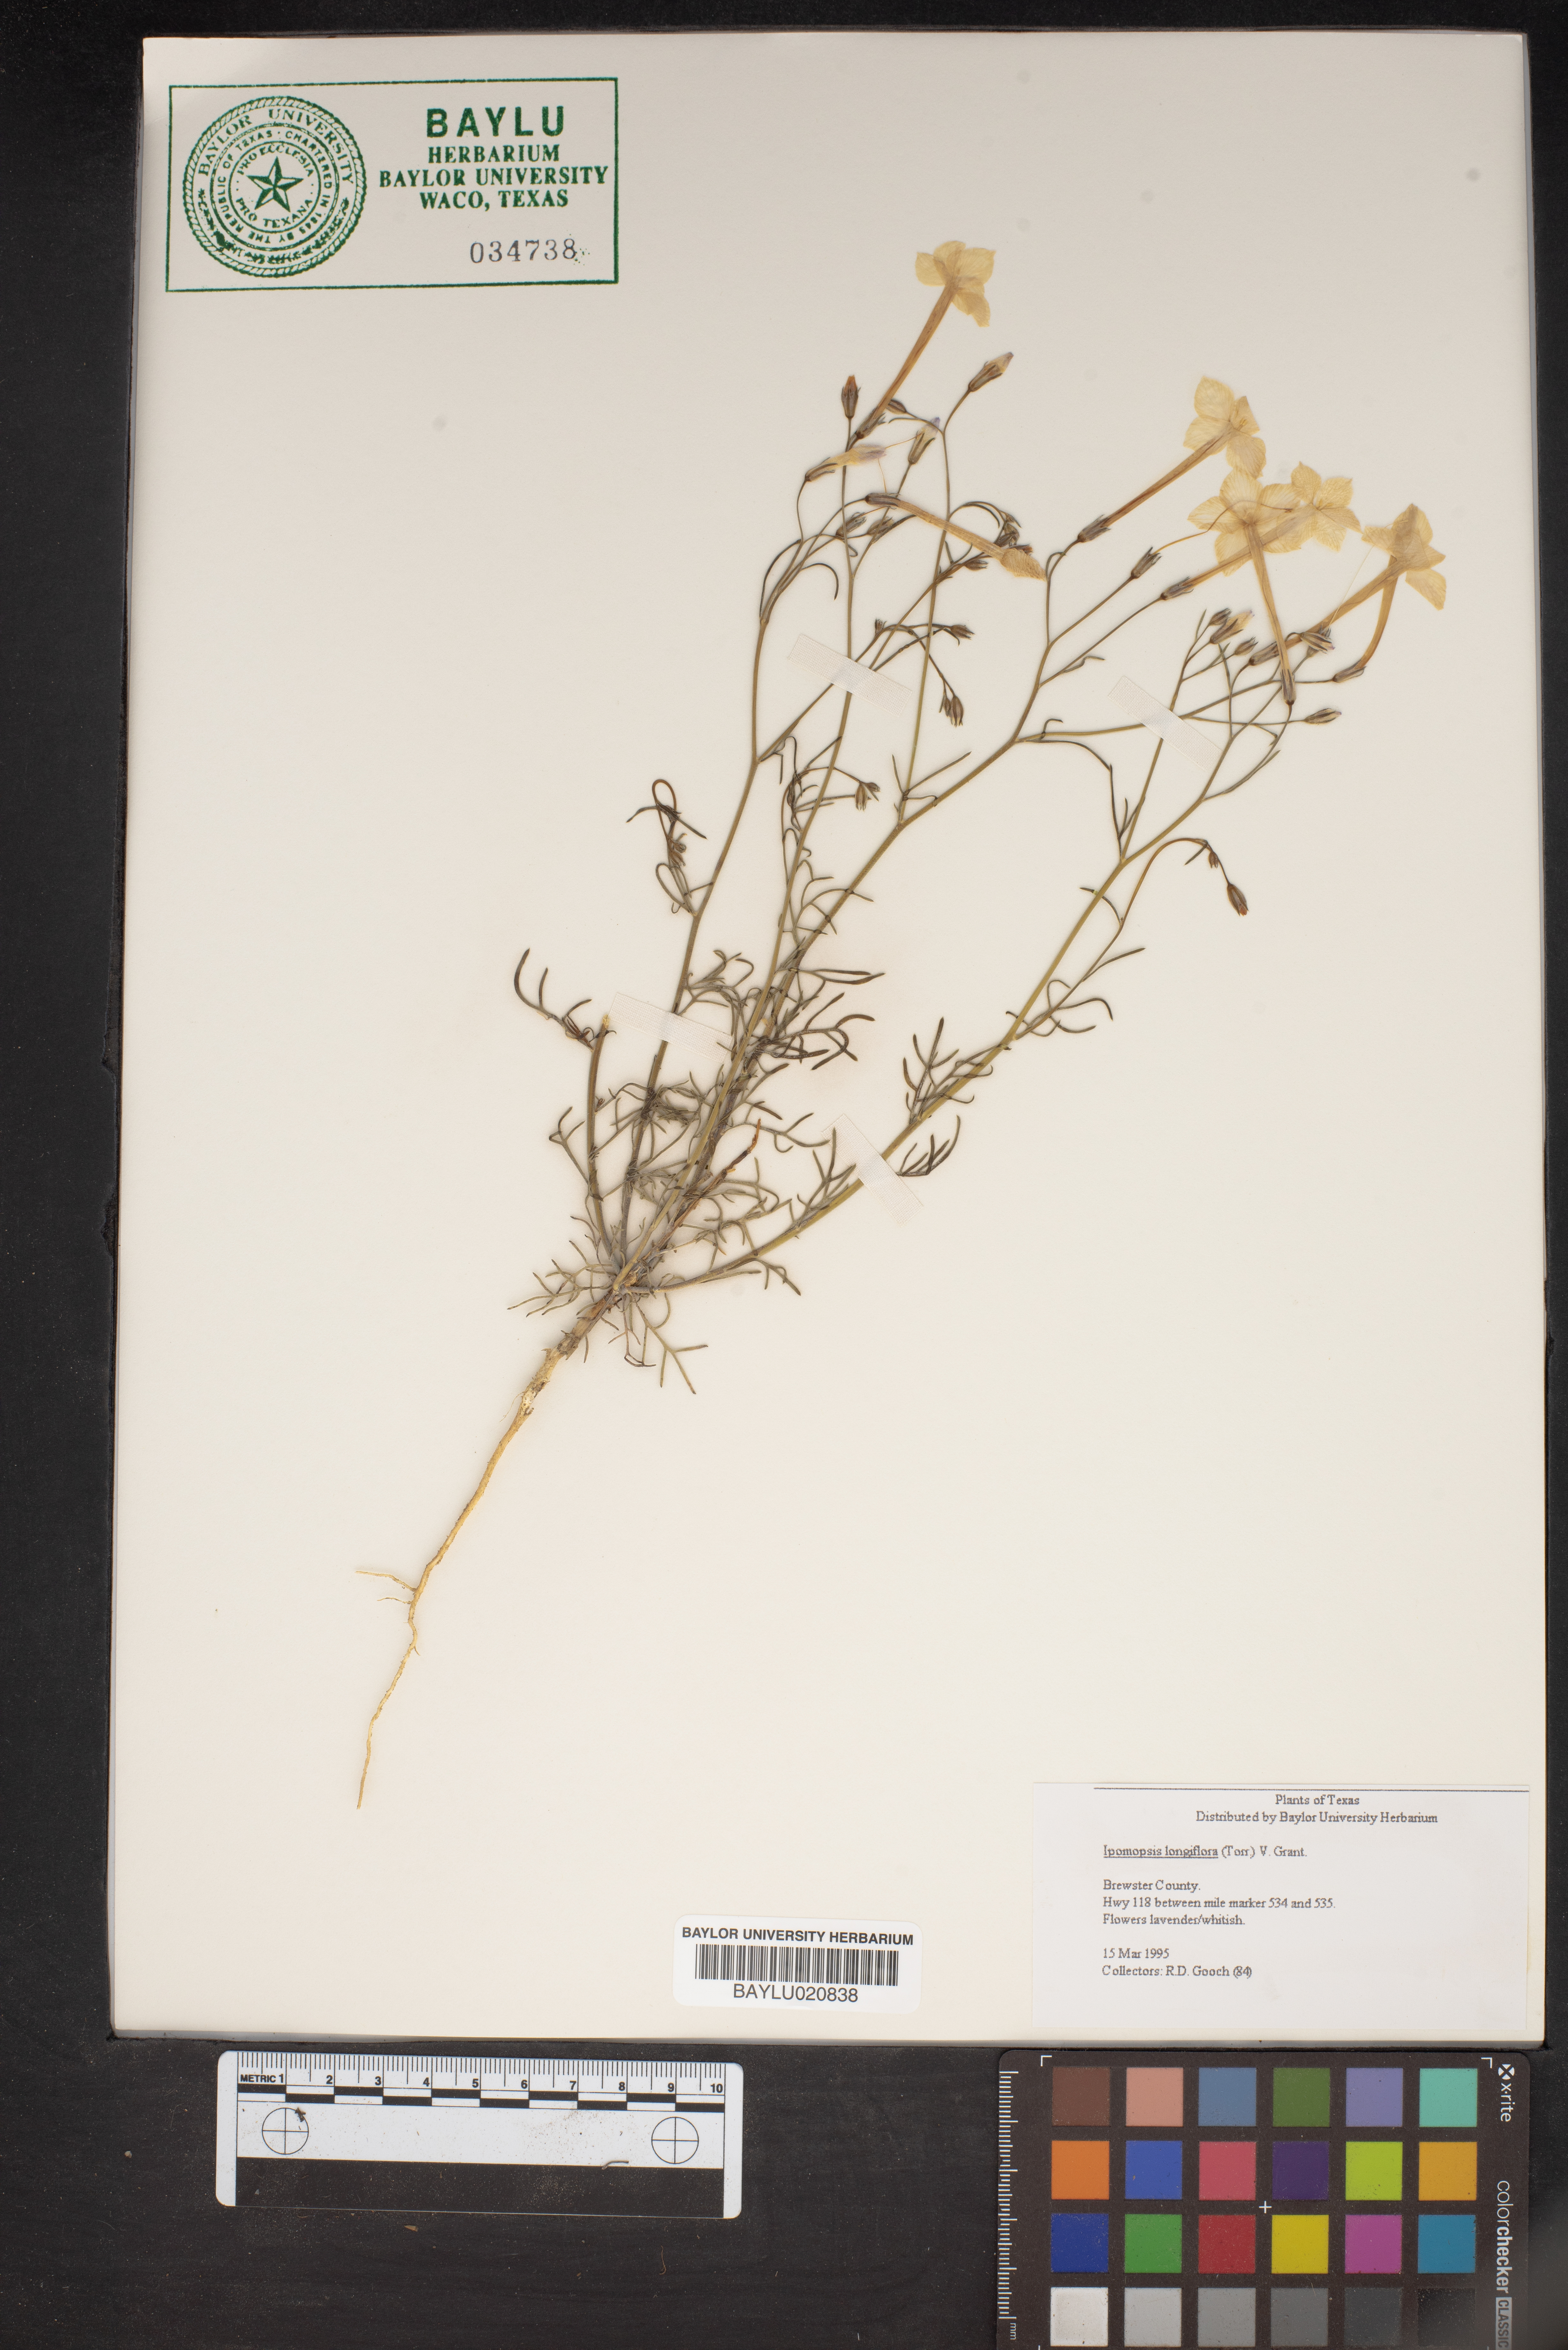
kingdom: Plantae
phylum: Tracheophyta
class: Magnoliopsida
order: Ericales
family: Polemoniaceae
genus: Ipomopsis
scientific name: Ipomopsis longiflora
